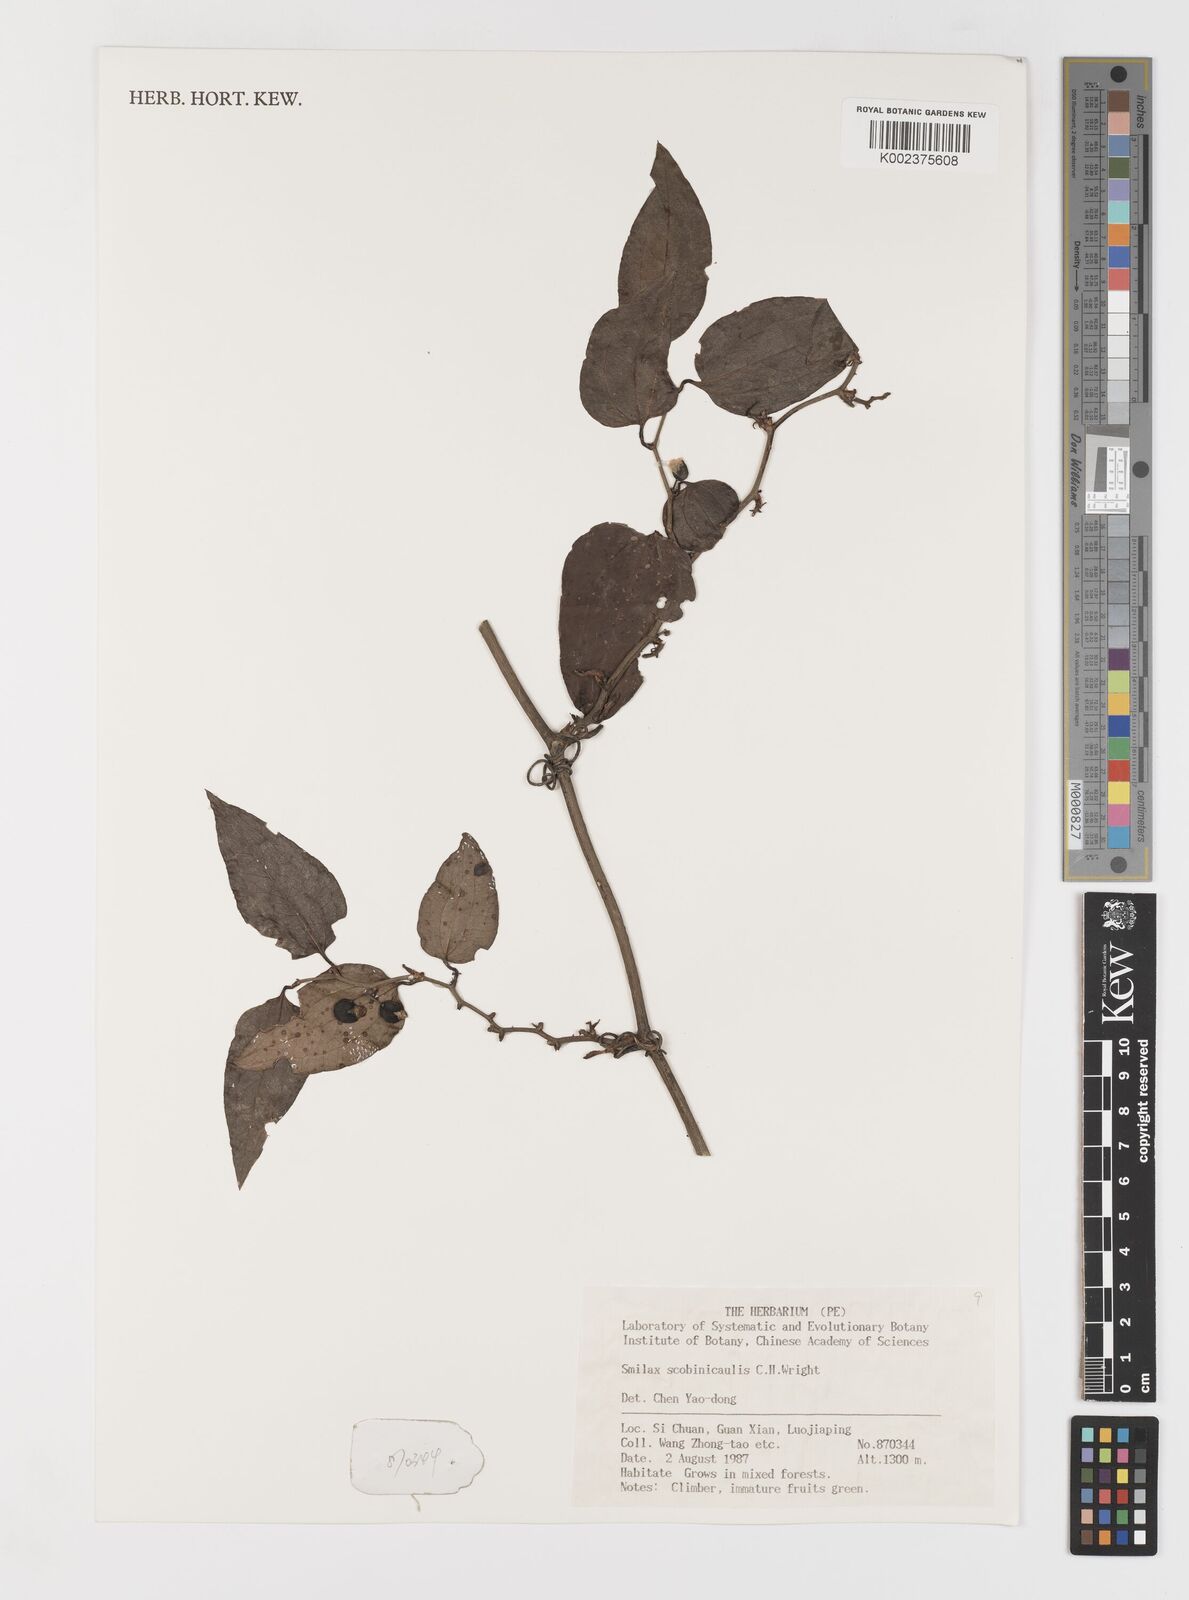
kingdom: Plantae
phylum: Tracheophyta
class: Liliopsida
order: Liliales
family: Smilacaceae
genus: Smilax
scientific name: Smilax scobinicaulis
